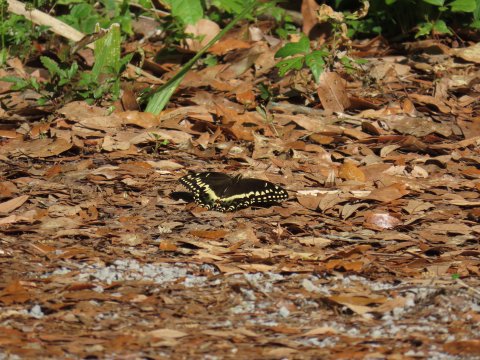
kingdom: Animalia
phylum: Arthropoda
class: Insecta
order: Lepidoptera
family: Papilionidae
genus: Pterourus
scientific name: Pterourus palamedes
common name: Palamedes Swallowtail
